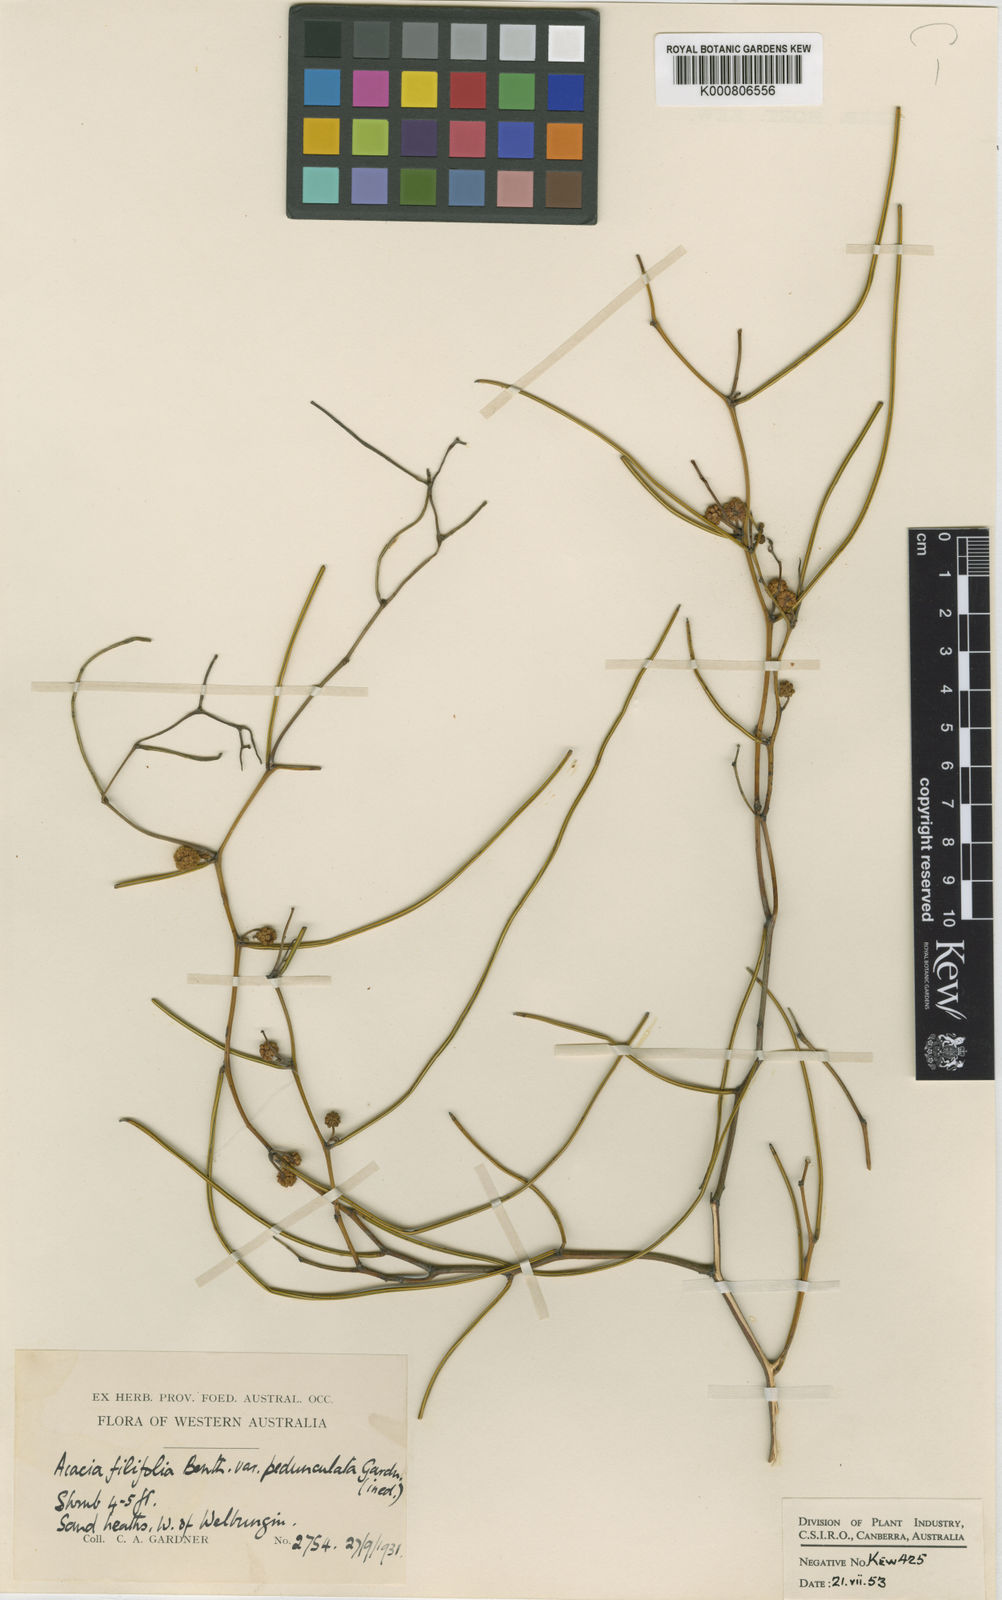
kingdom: Plantae
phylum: Tracheophyta
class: Magnoliopsida
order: Fabales
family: Fabaceae
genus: Acacia
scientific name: Acacia ephedroides
